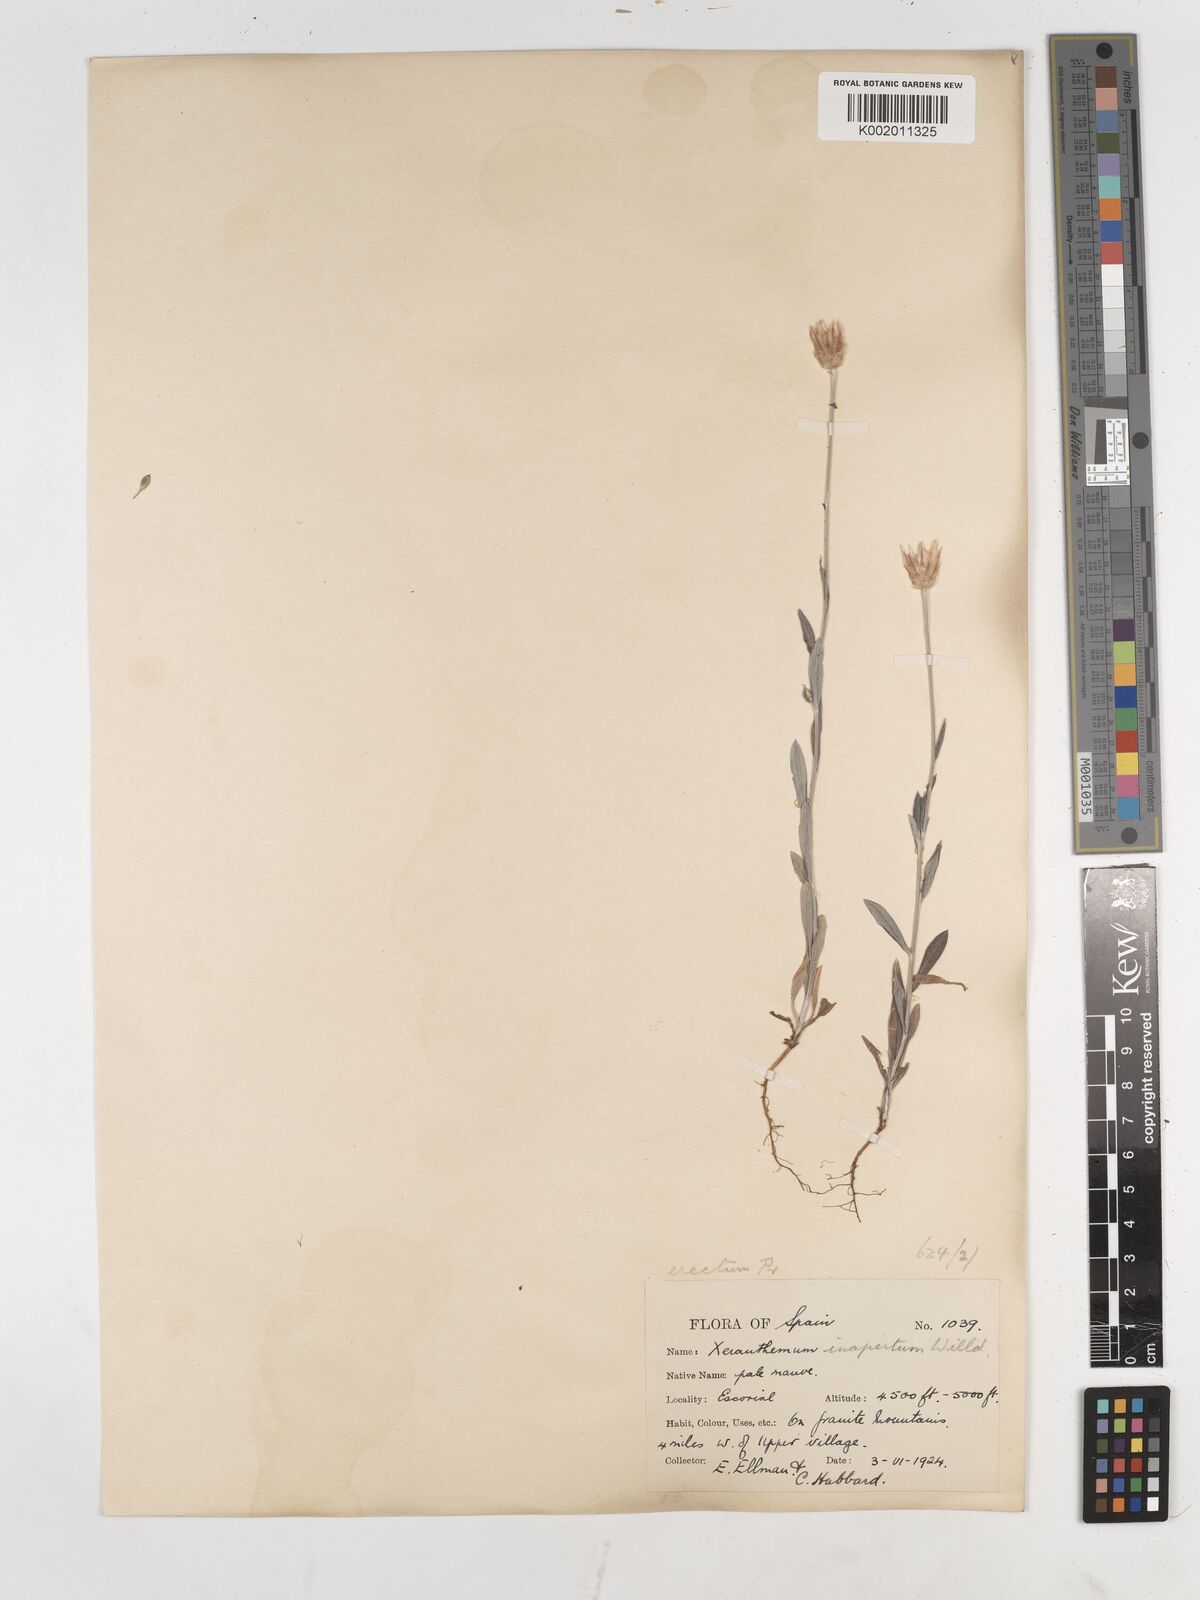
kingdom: Plantae
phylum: Tracheophyta
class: Magnoliopsida
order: Asterales
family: Asteraceae
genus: Xeranthemum
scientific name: Xeranthemum inapertum
